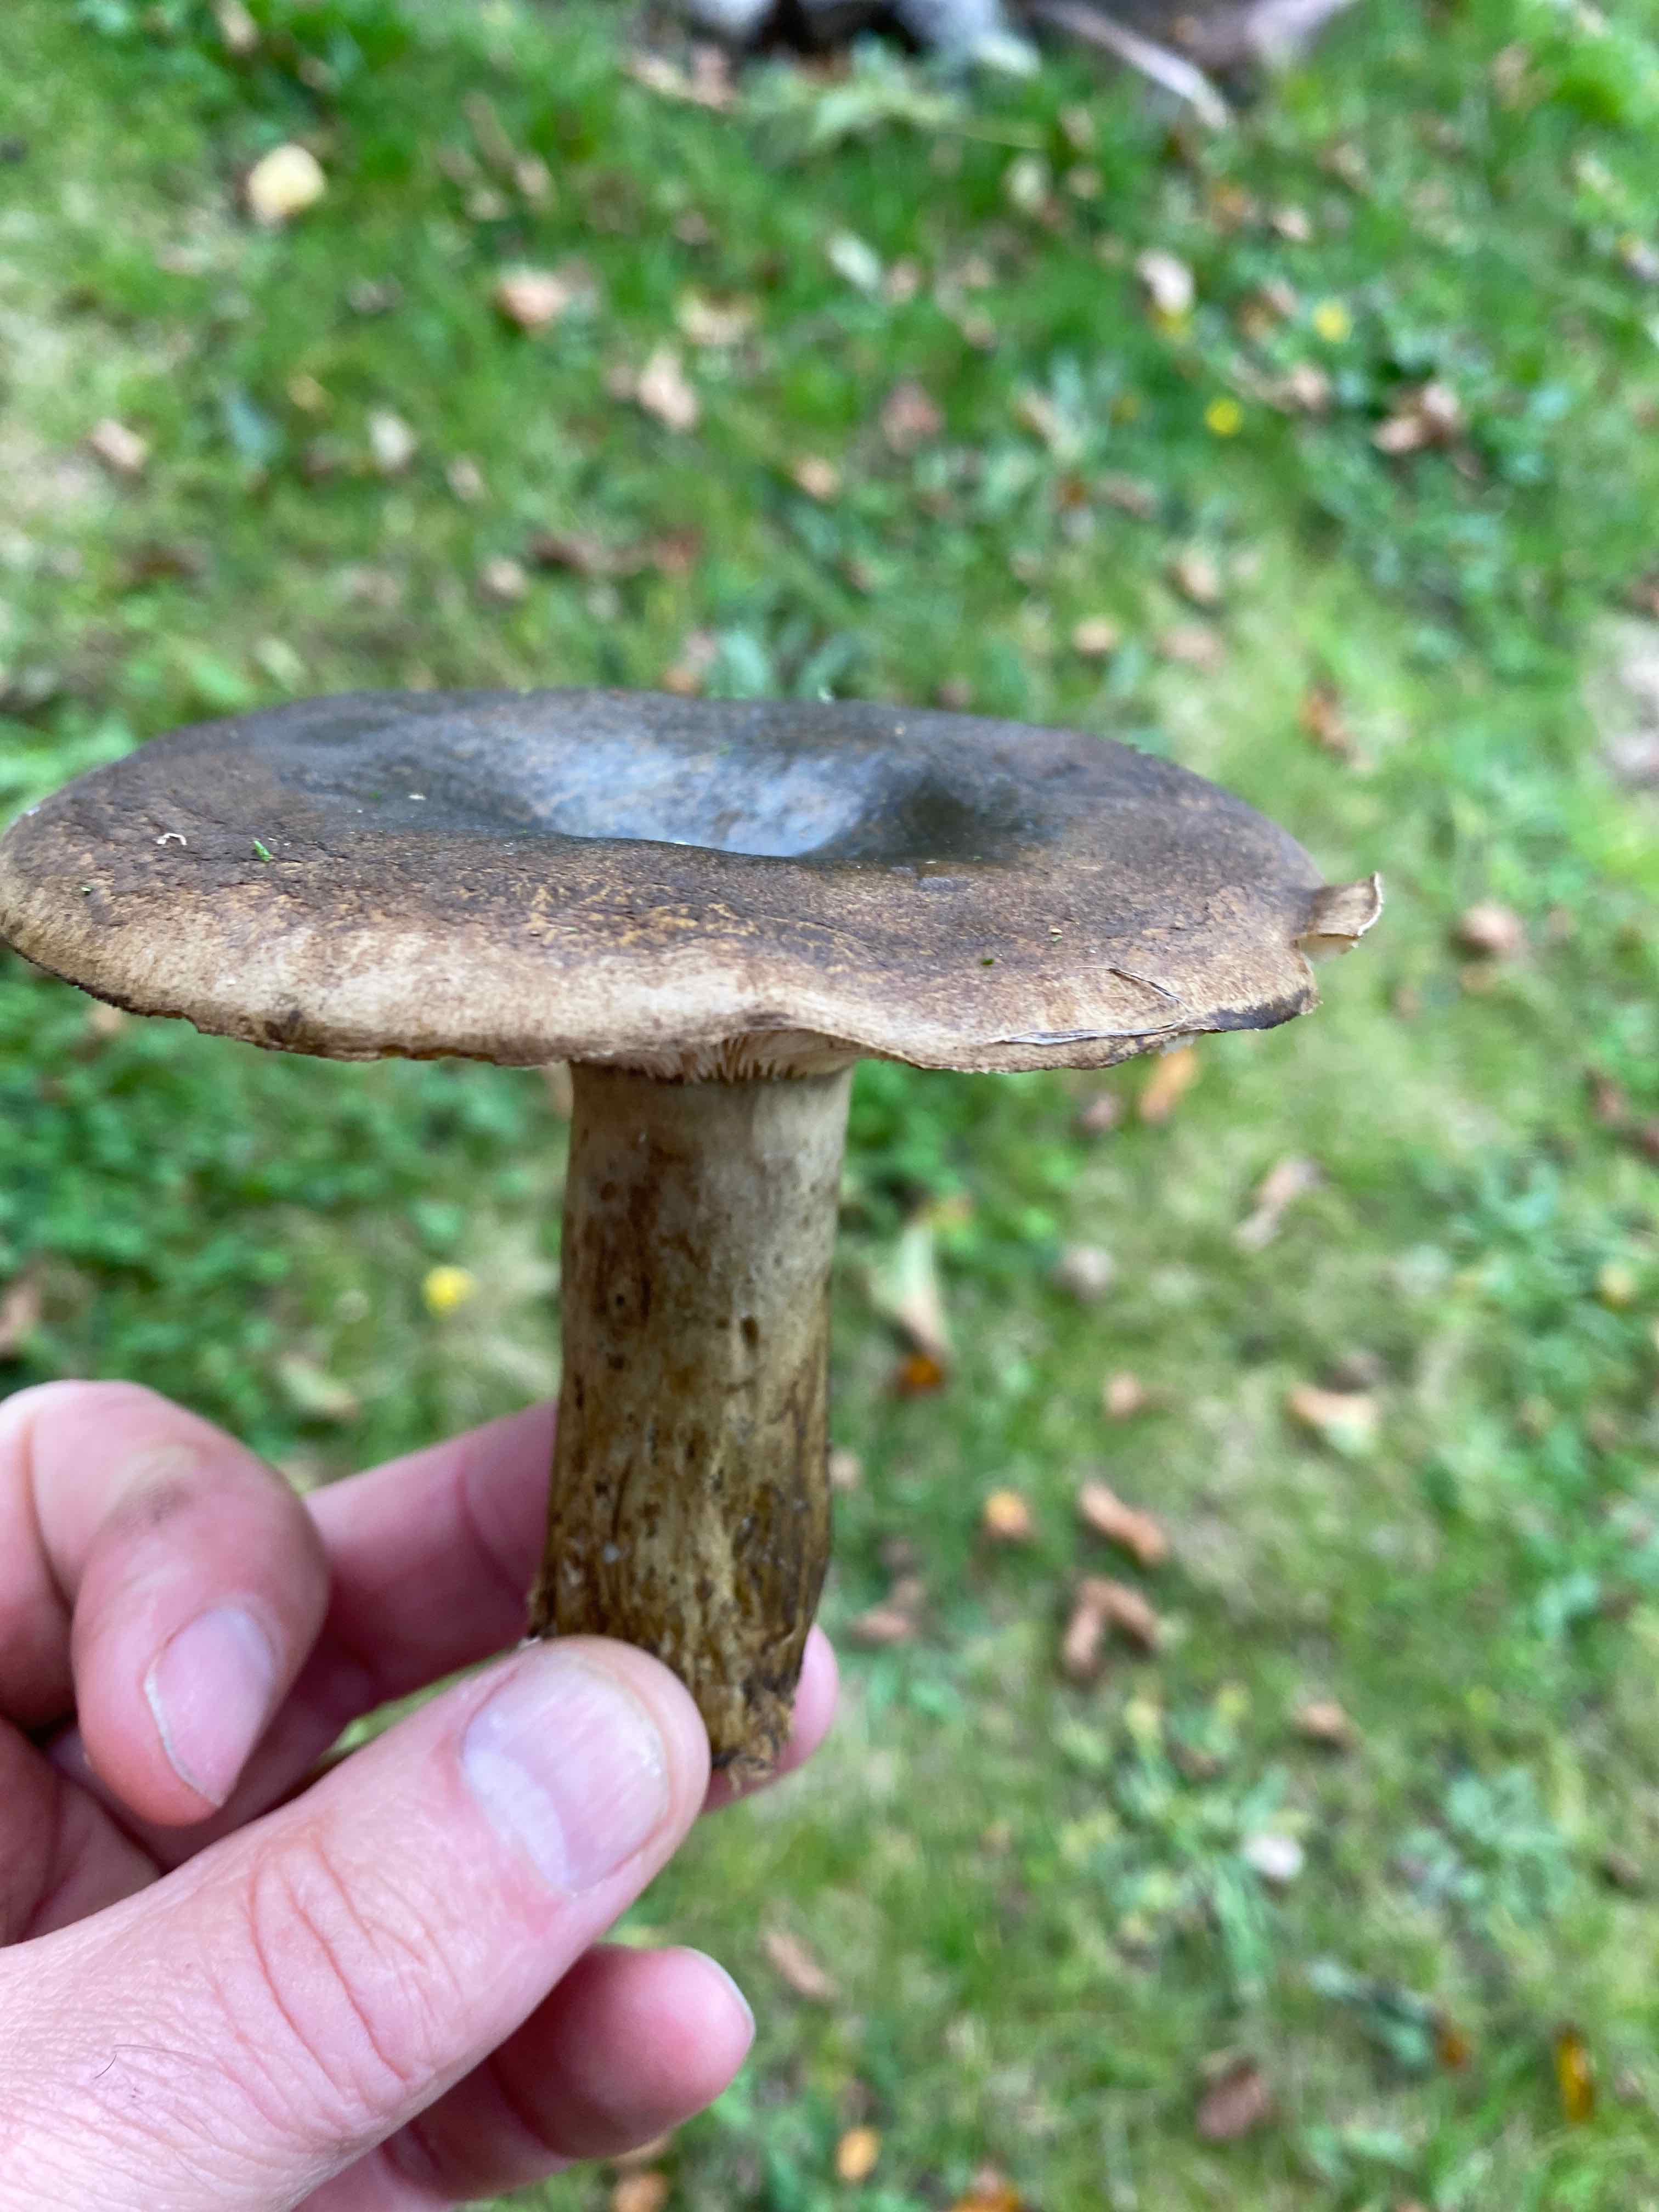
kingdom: Fungi
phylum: Basidiomycota
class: Agaricomycetes
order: Russulales
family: Russulaceae
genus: Lactarius
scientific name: Lactarius necator
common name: manddraber-mælkehat
